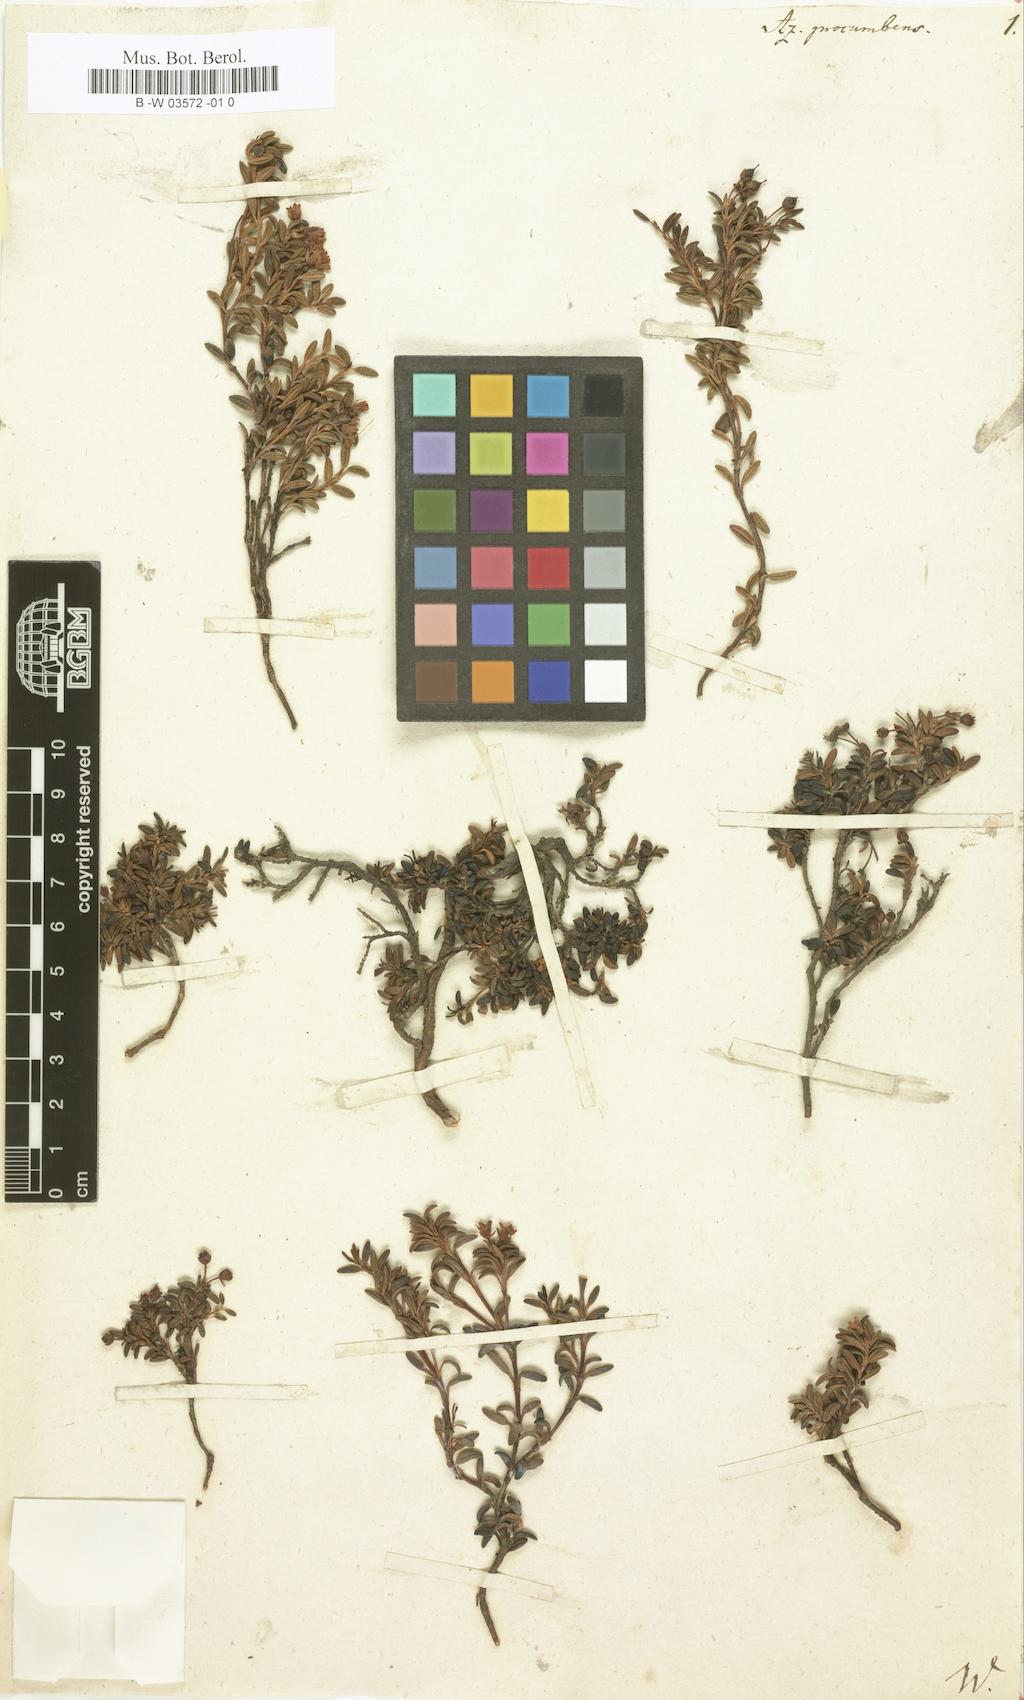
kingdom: Plantae
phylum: Tracheophyta
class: Magnoliopsida
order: Ericales
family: Ericaceae
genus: Kalmia
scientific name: Kalmia procumbens
